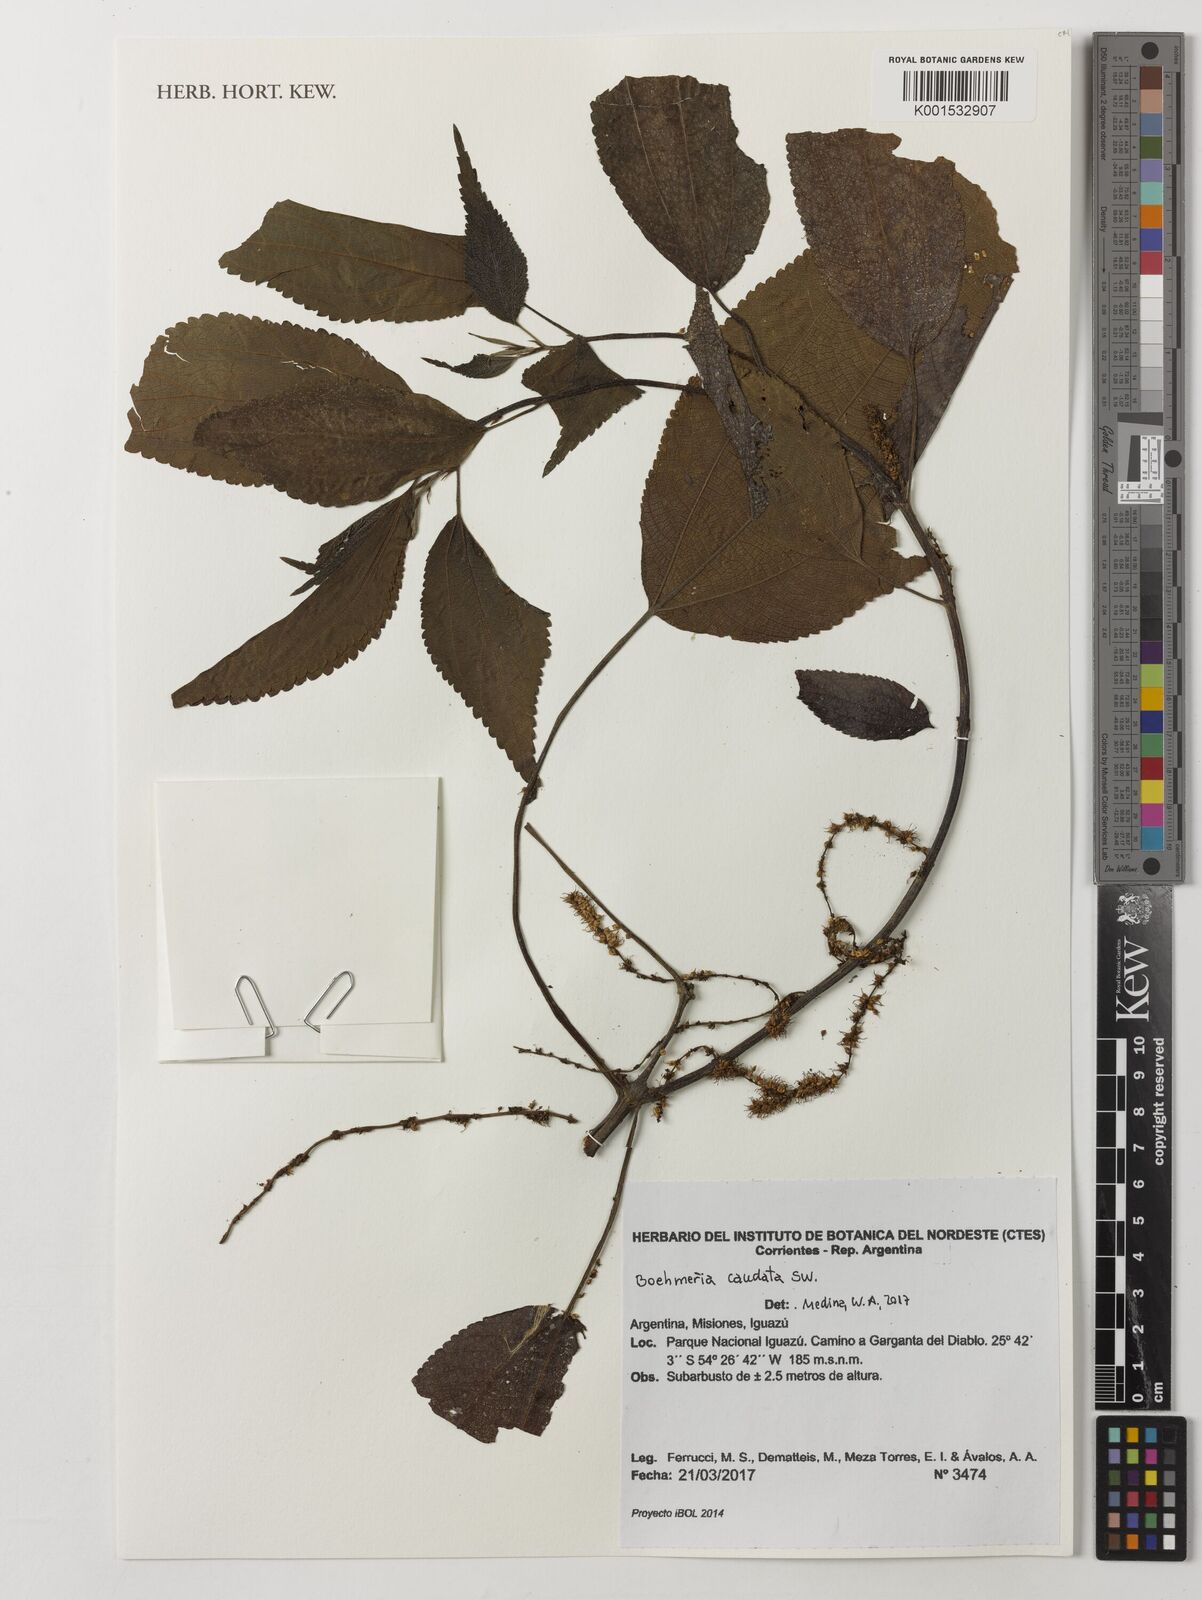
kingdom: Plantae
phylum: Tracheophyta
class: Magnoliopsida
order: Rosales
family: Urticaceae
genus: Boehmeria
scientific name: Boehmeria caudata
